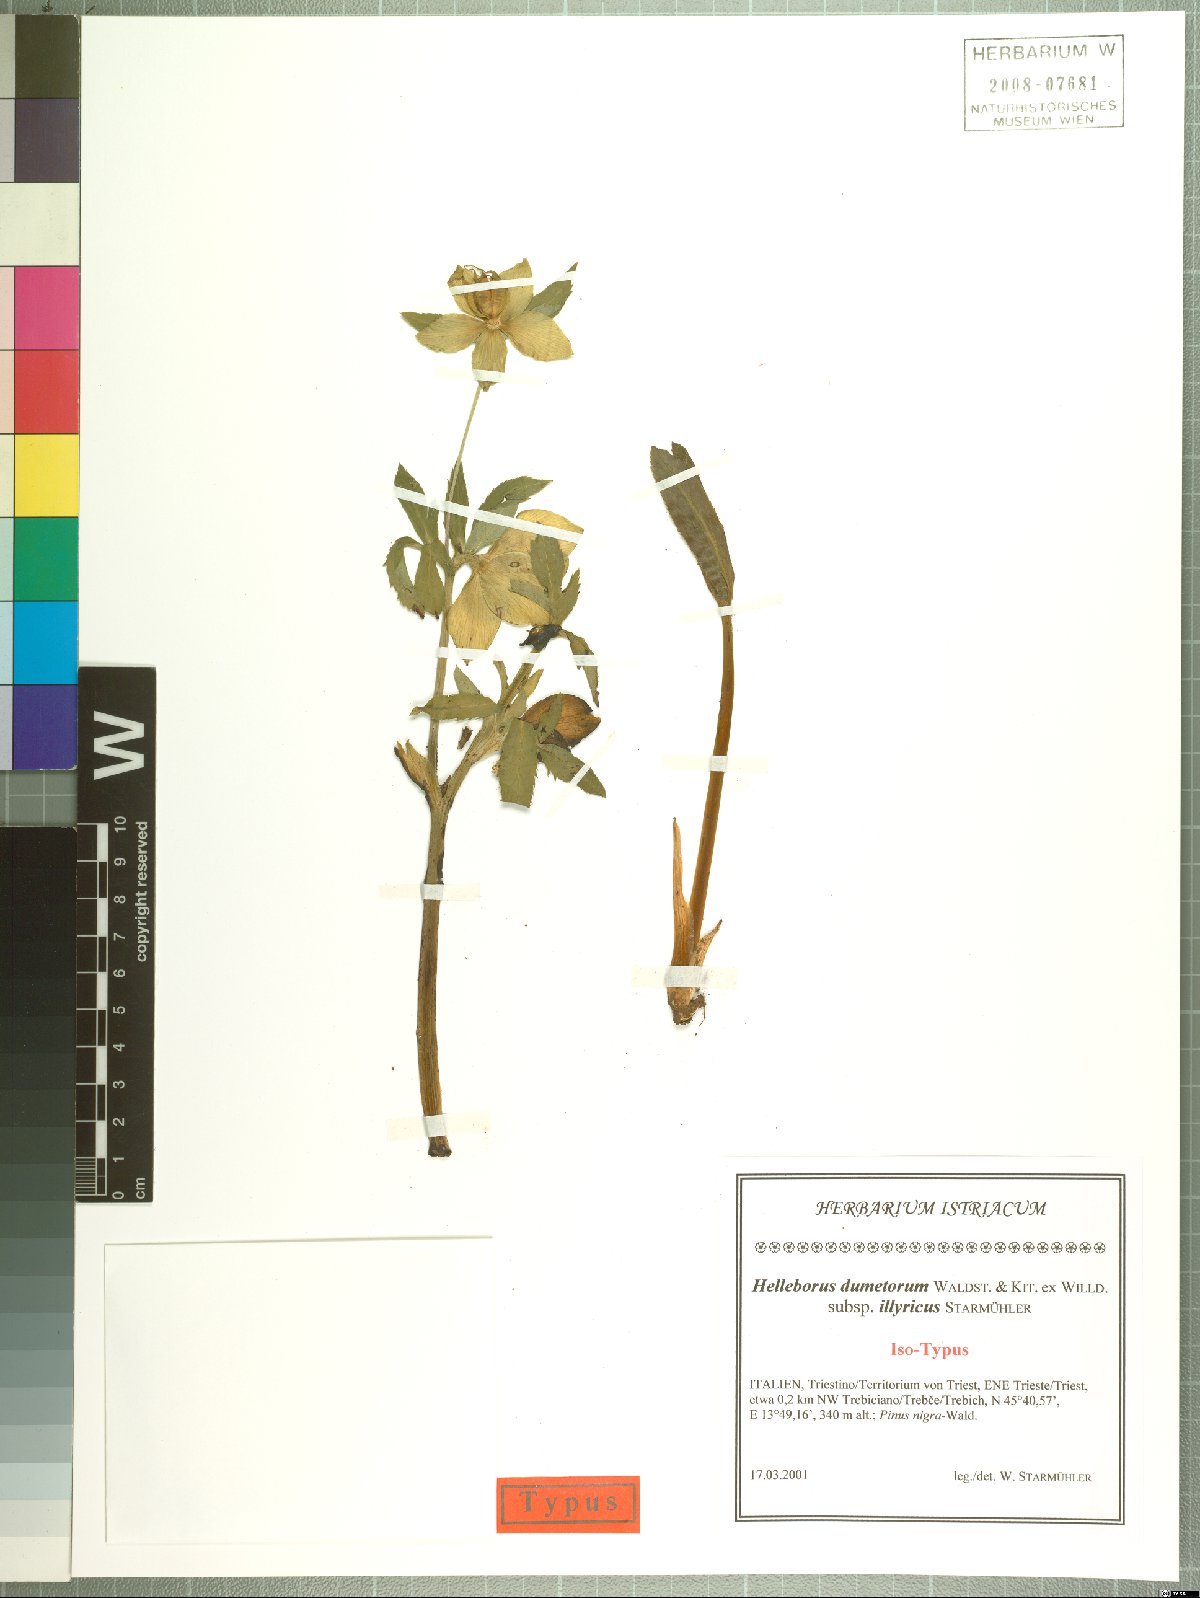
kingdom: Plantae
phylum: Tracheophyta
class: Magnoliopsida
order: Ranunculales
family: Ranunculaceae
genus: Helleborus
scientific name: Helleborus viridis
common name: Green hellebore
